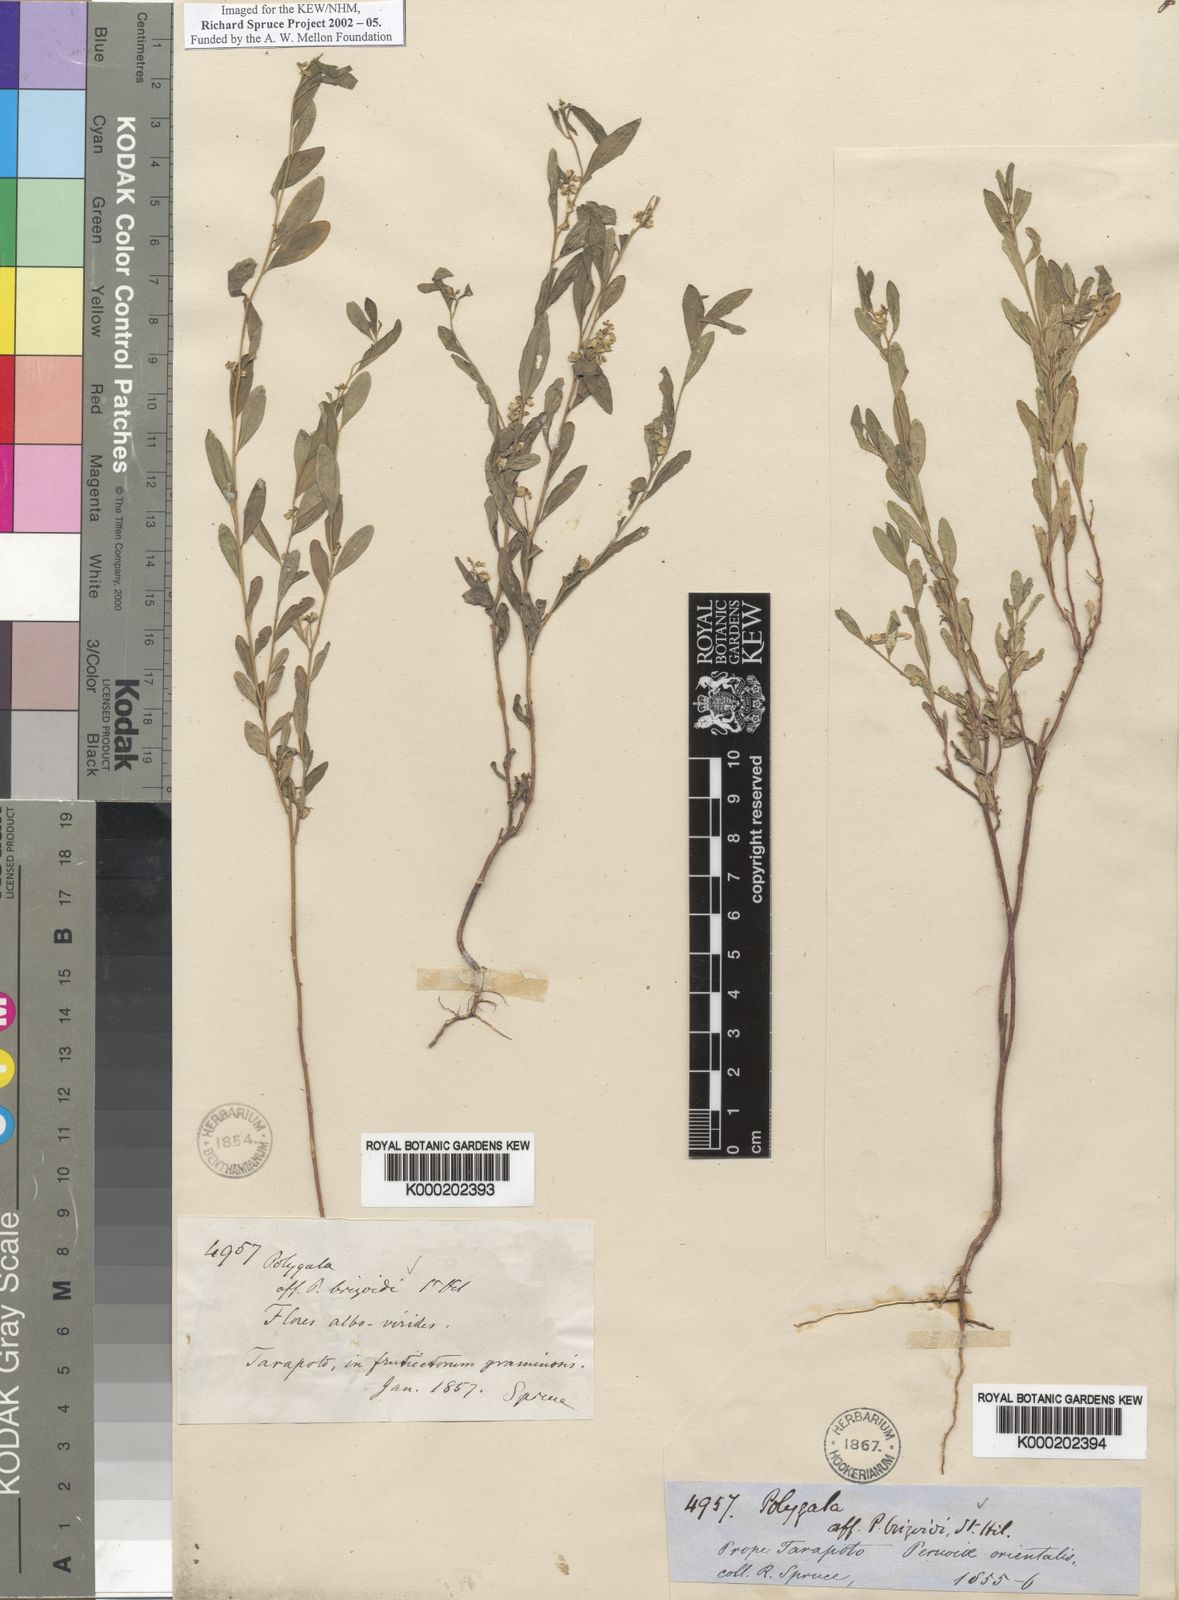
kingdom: Plantae
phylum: Tracheophyta
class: Magnoliopsida
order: Fabales
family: Polygalaceae
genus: Polygala
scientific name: Polygala
